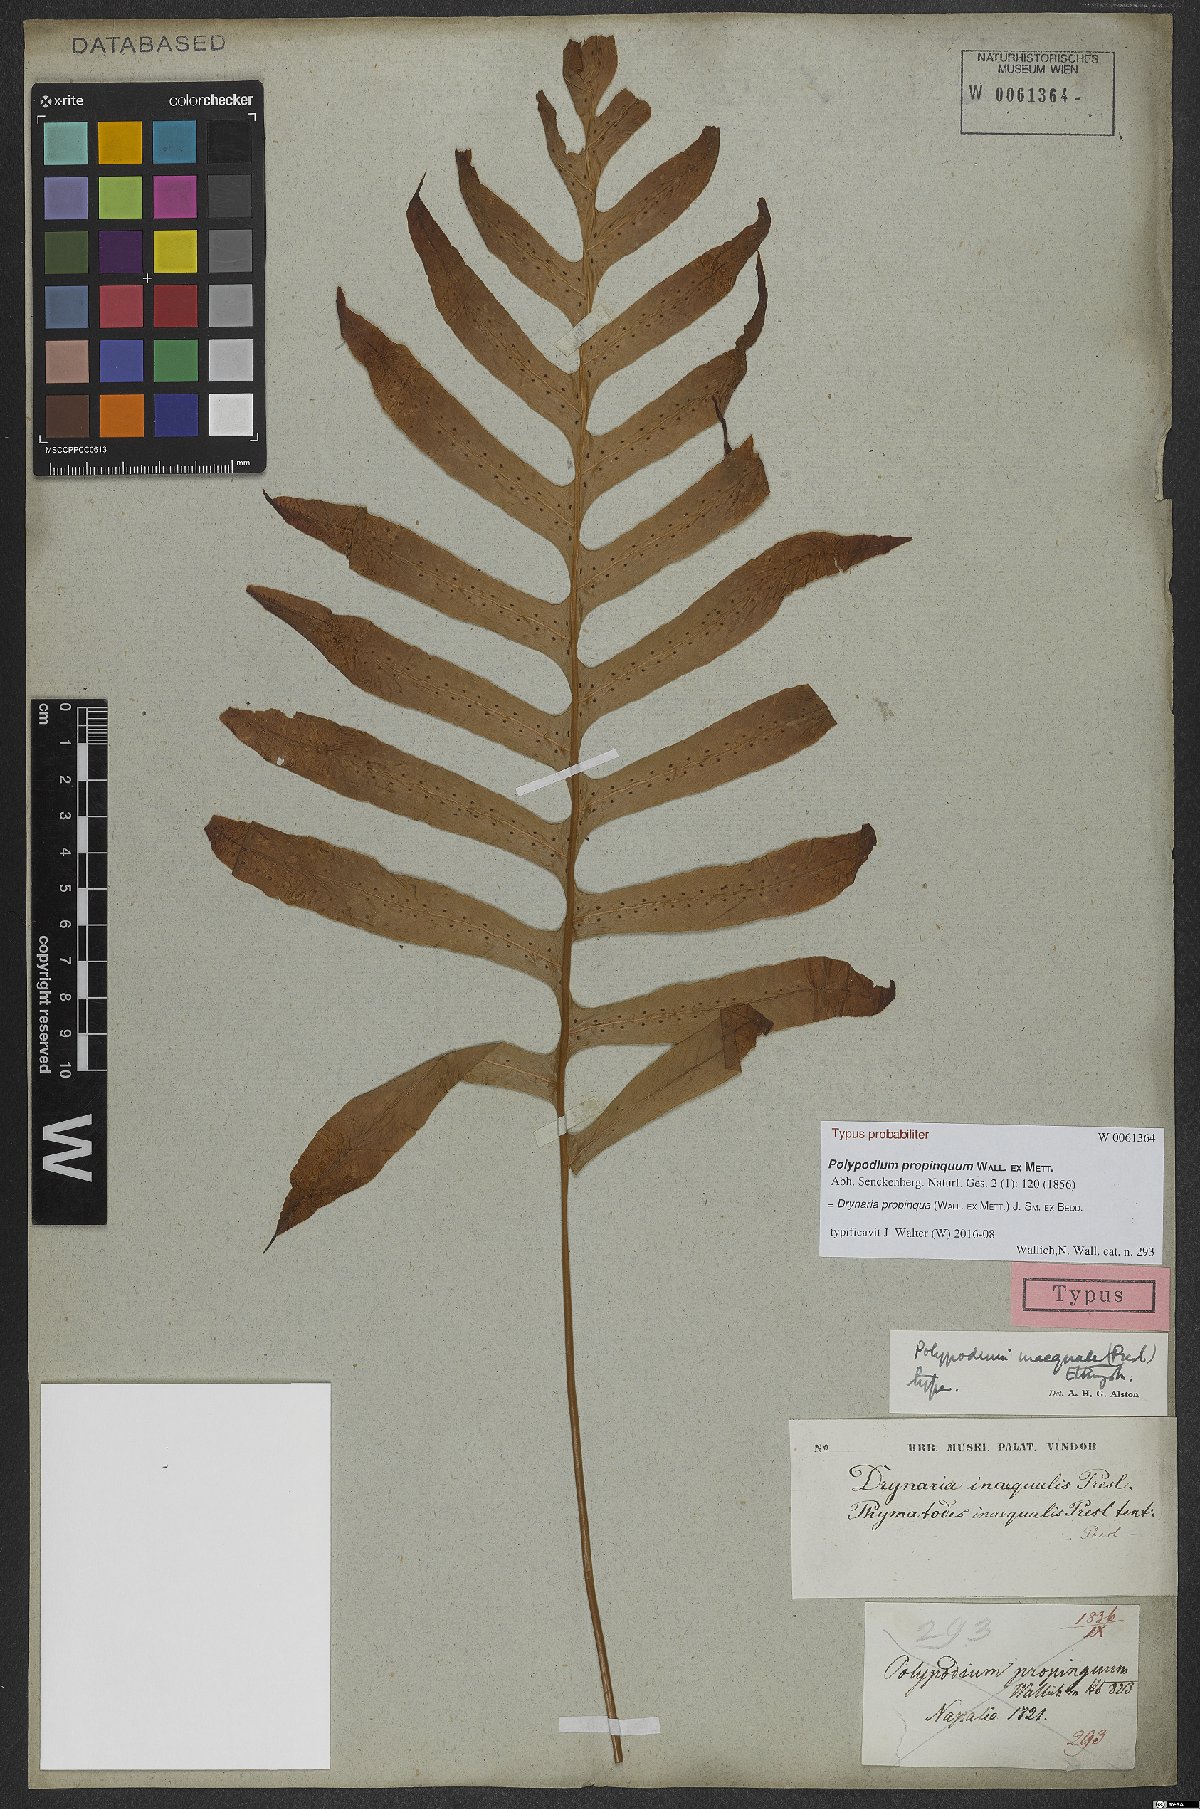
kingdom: Plantae
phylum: Tracheophyta
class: Polypodiopsida
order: Polypodiales
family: Polypodiaceae
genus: Drynaria
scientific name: Drynaria propinqua
